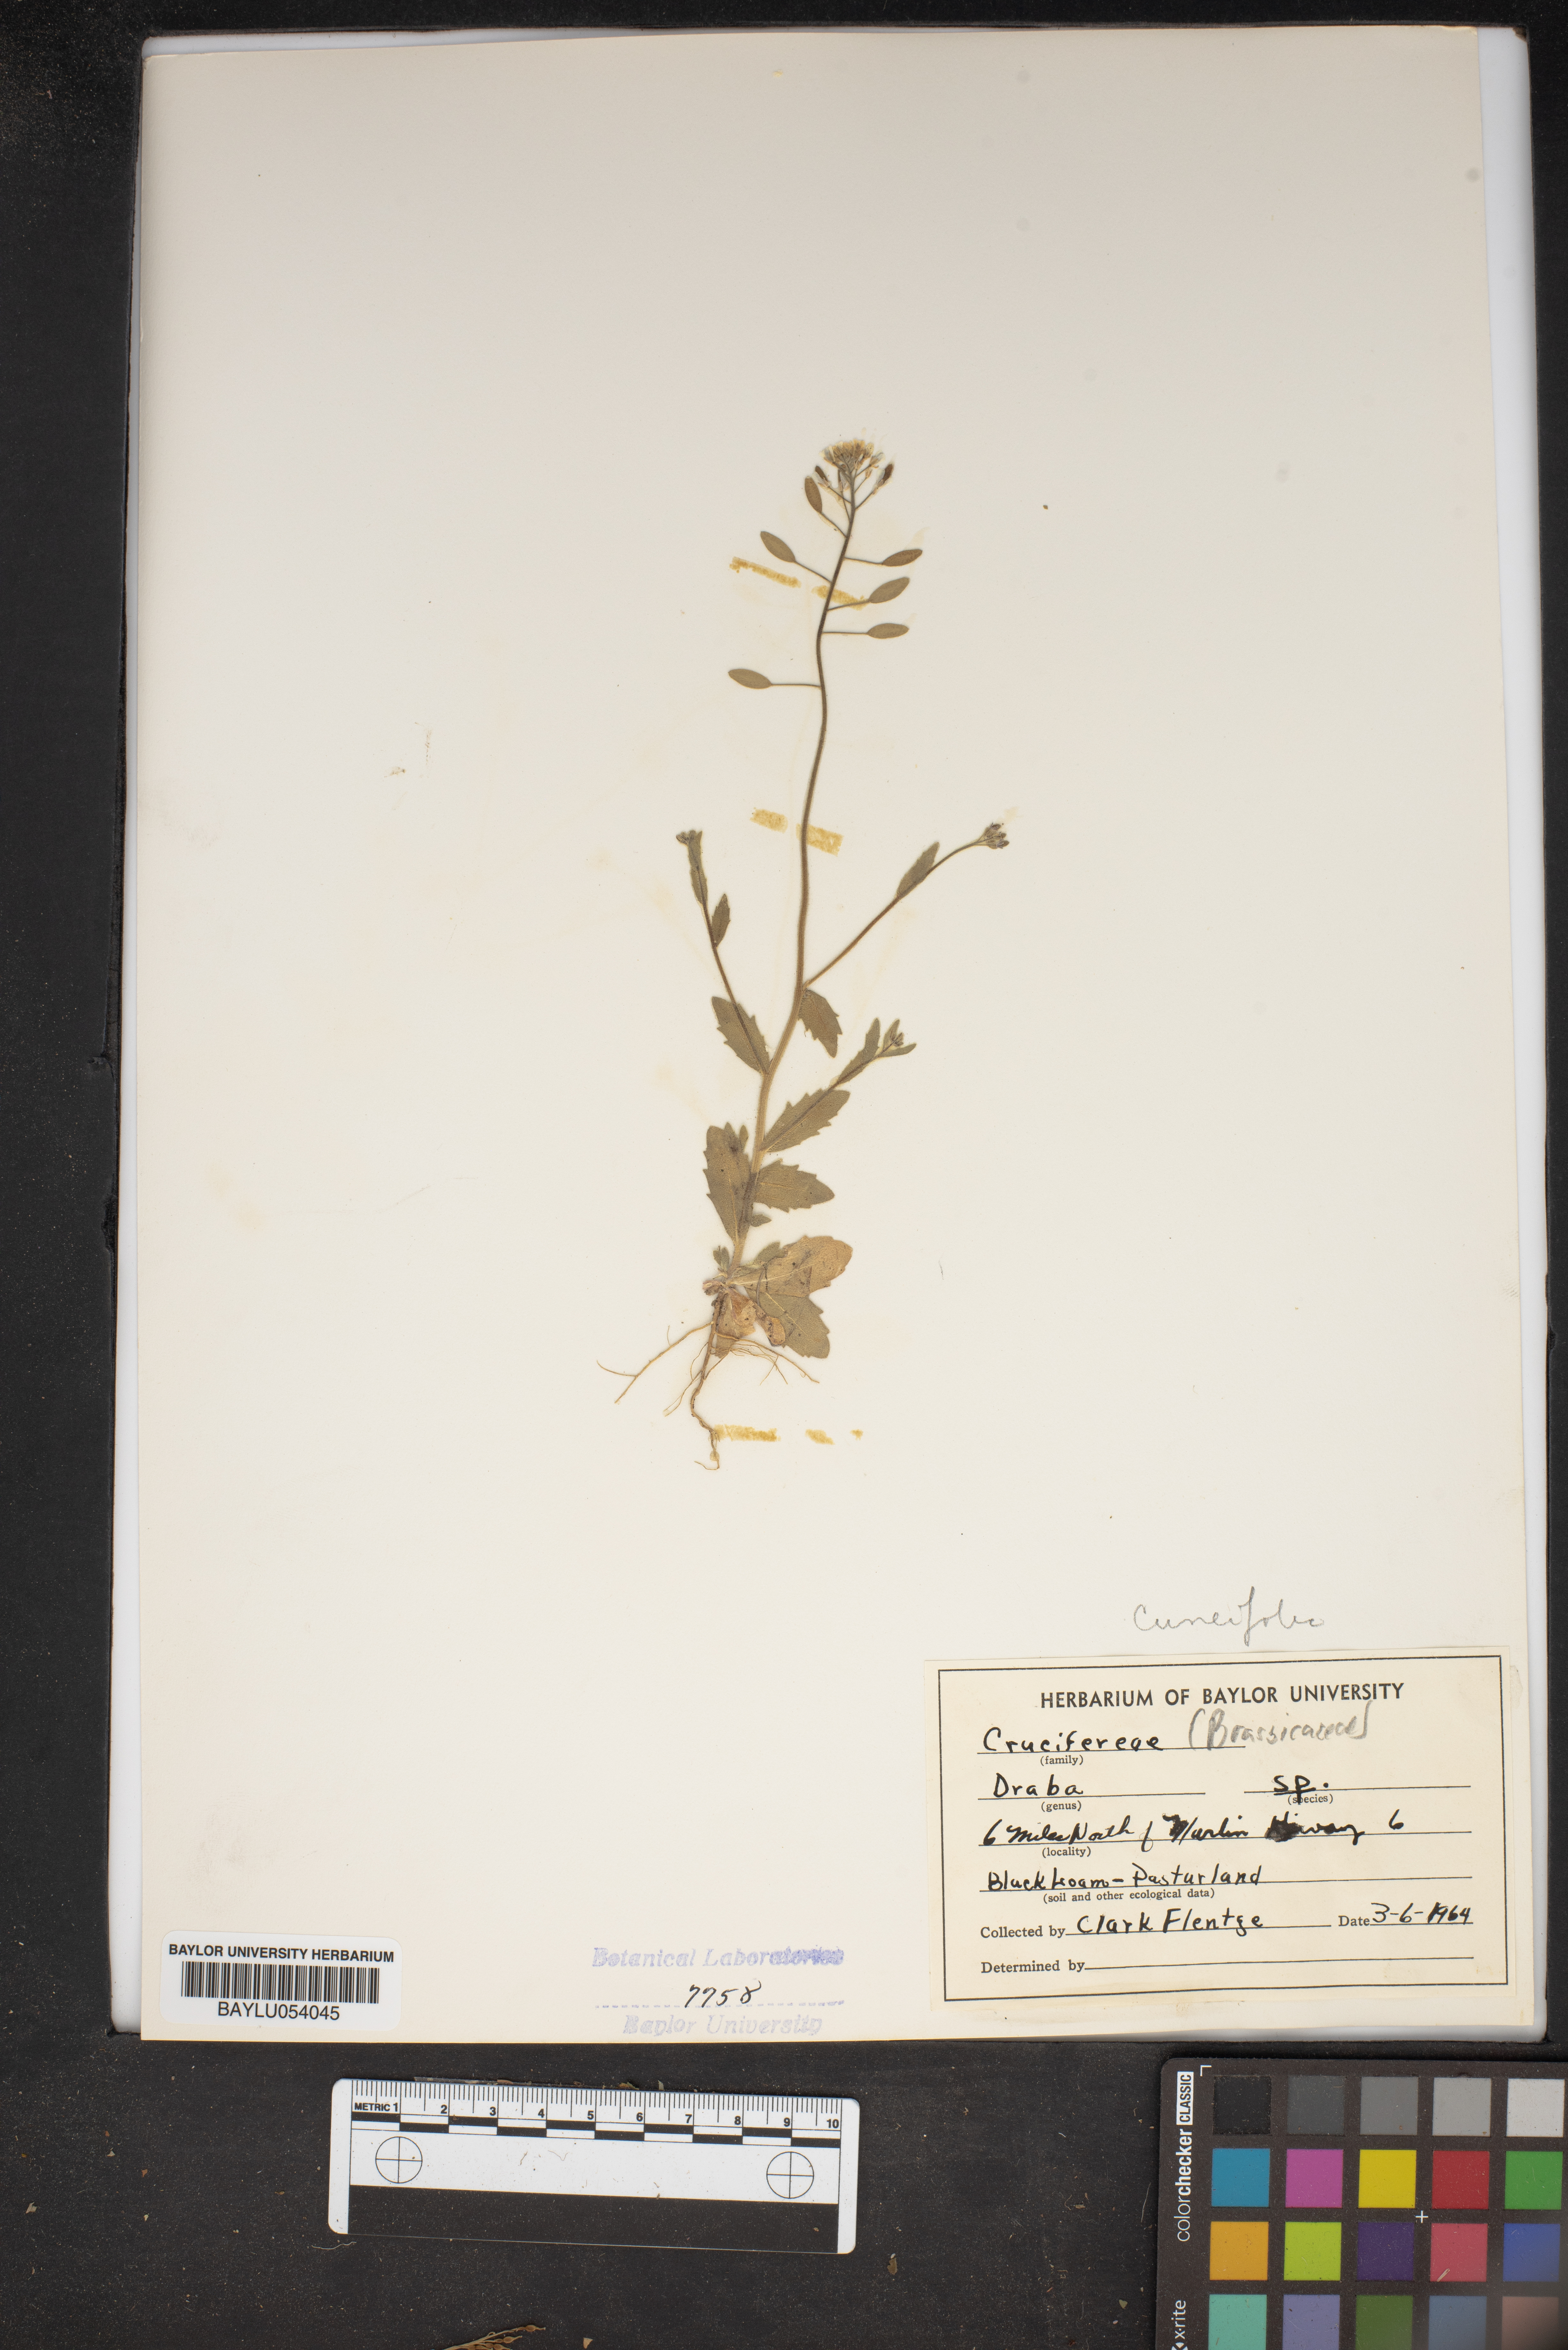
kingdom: Plantae
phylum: Tracheophyta
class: Magnoliopsida
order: Brassicales
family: Brassicaceae
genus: Draba
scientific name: Draba
